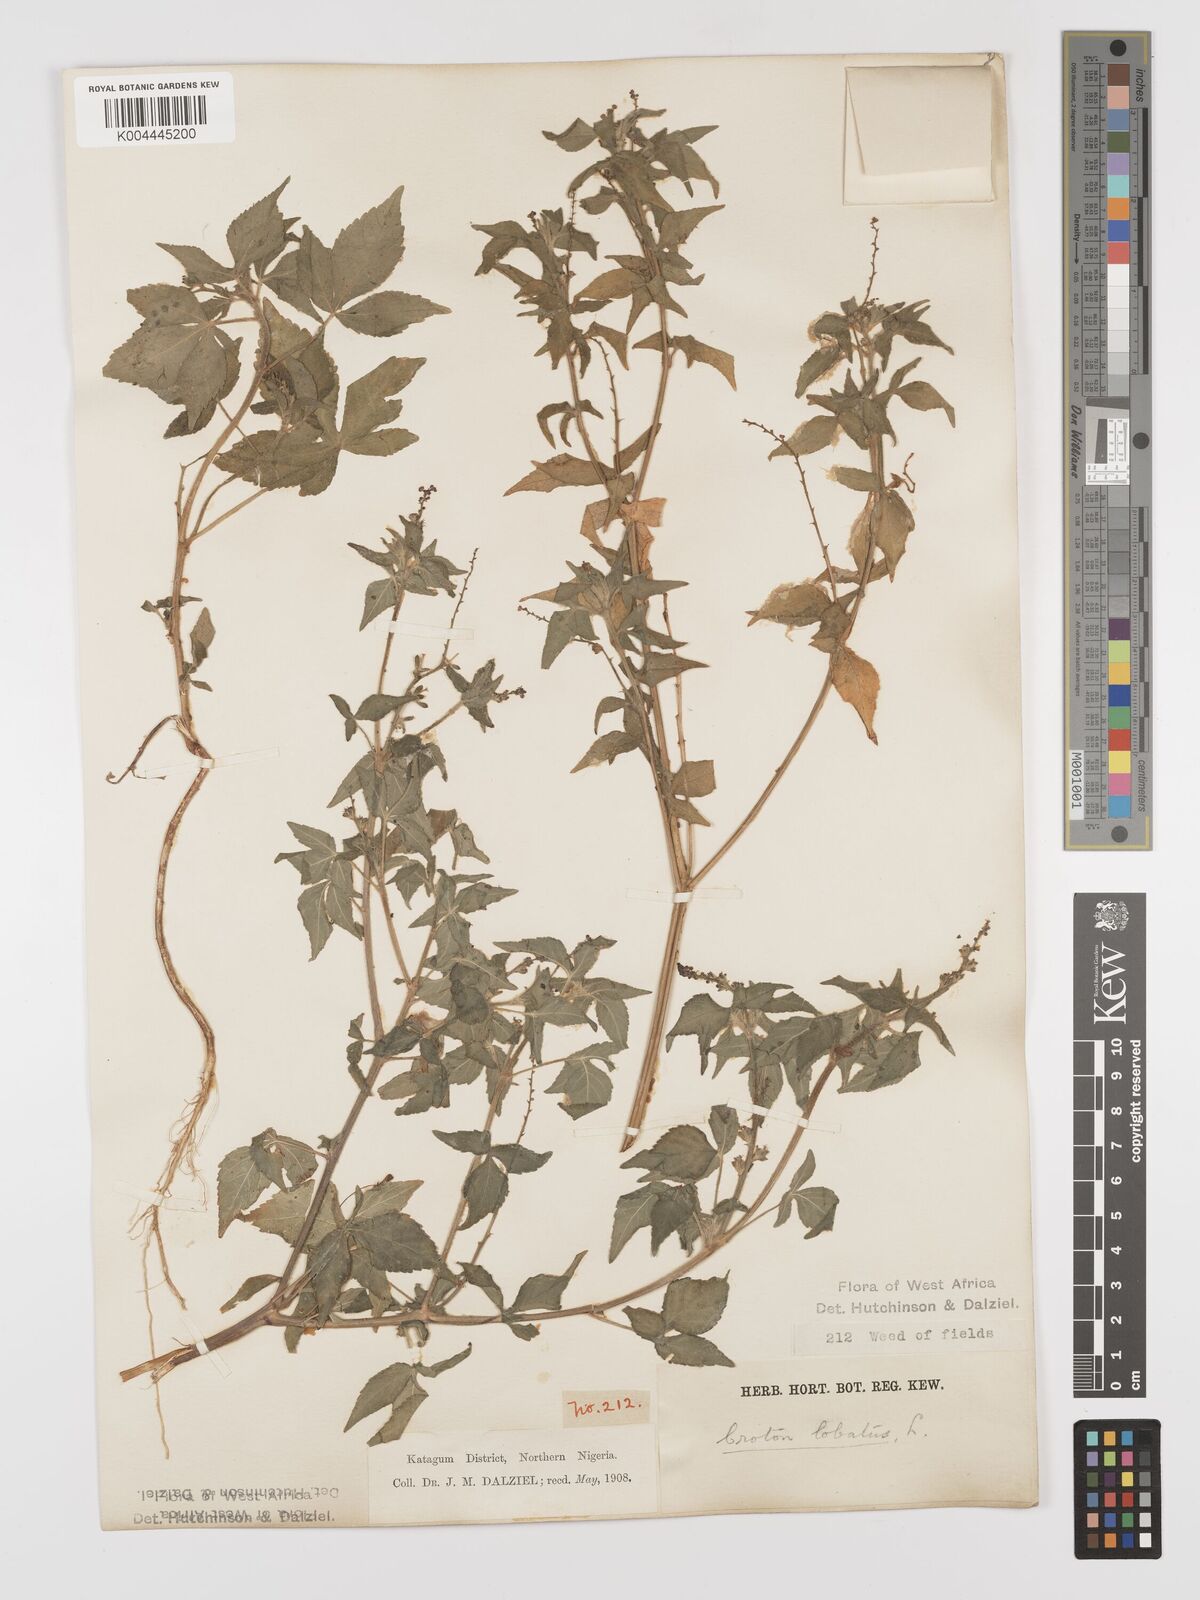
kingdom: Plantae
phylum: Tracheophyta
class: Magnoliopsida
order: Malpighiales
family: Euphorbiaceae
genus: Astraea
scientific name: Astraea lobata
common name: Lobed croton
